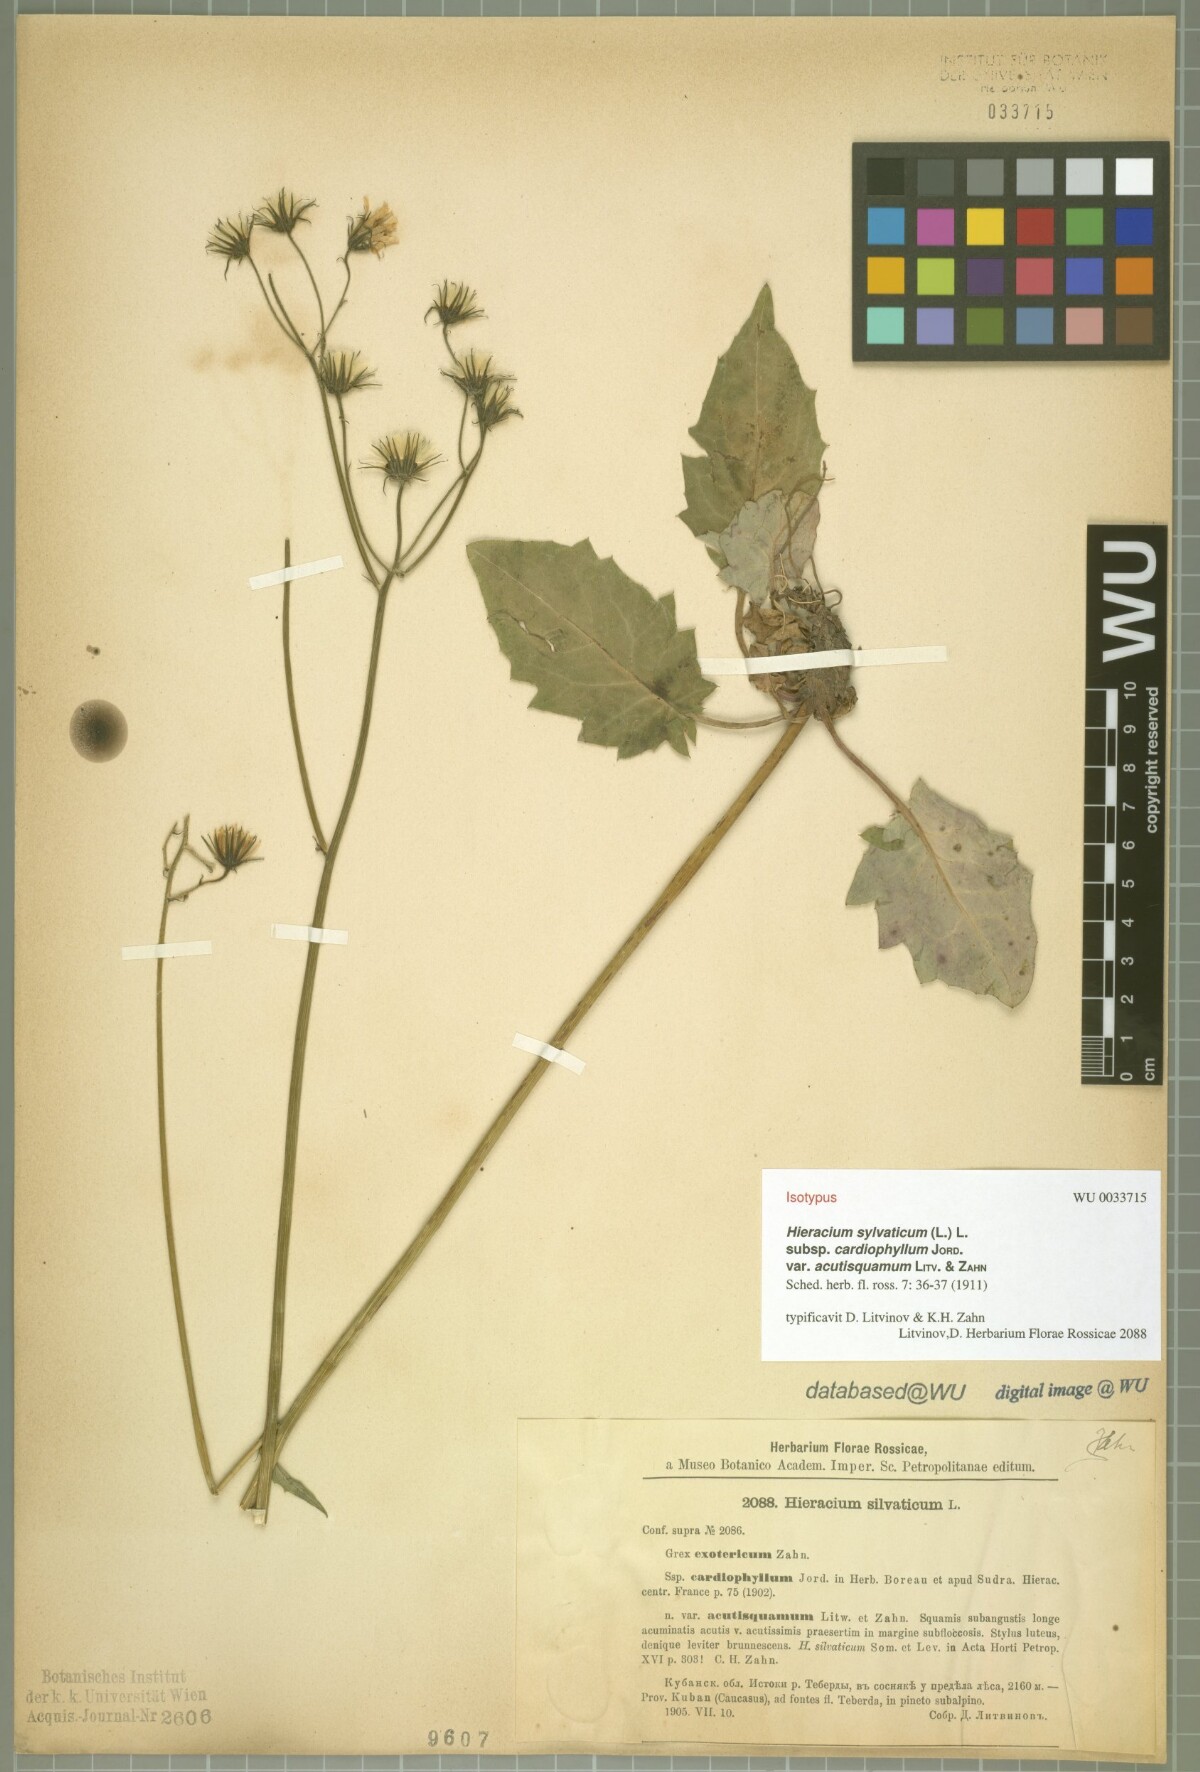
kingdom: Plantae
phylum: Tracheophyta
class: Magnoliopsida
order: Asterales
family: Asteraceae
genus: Hieracium
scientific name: Hieracium sylvaticum
